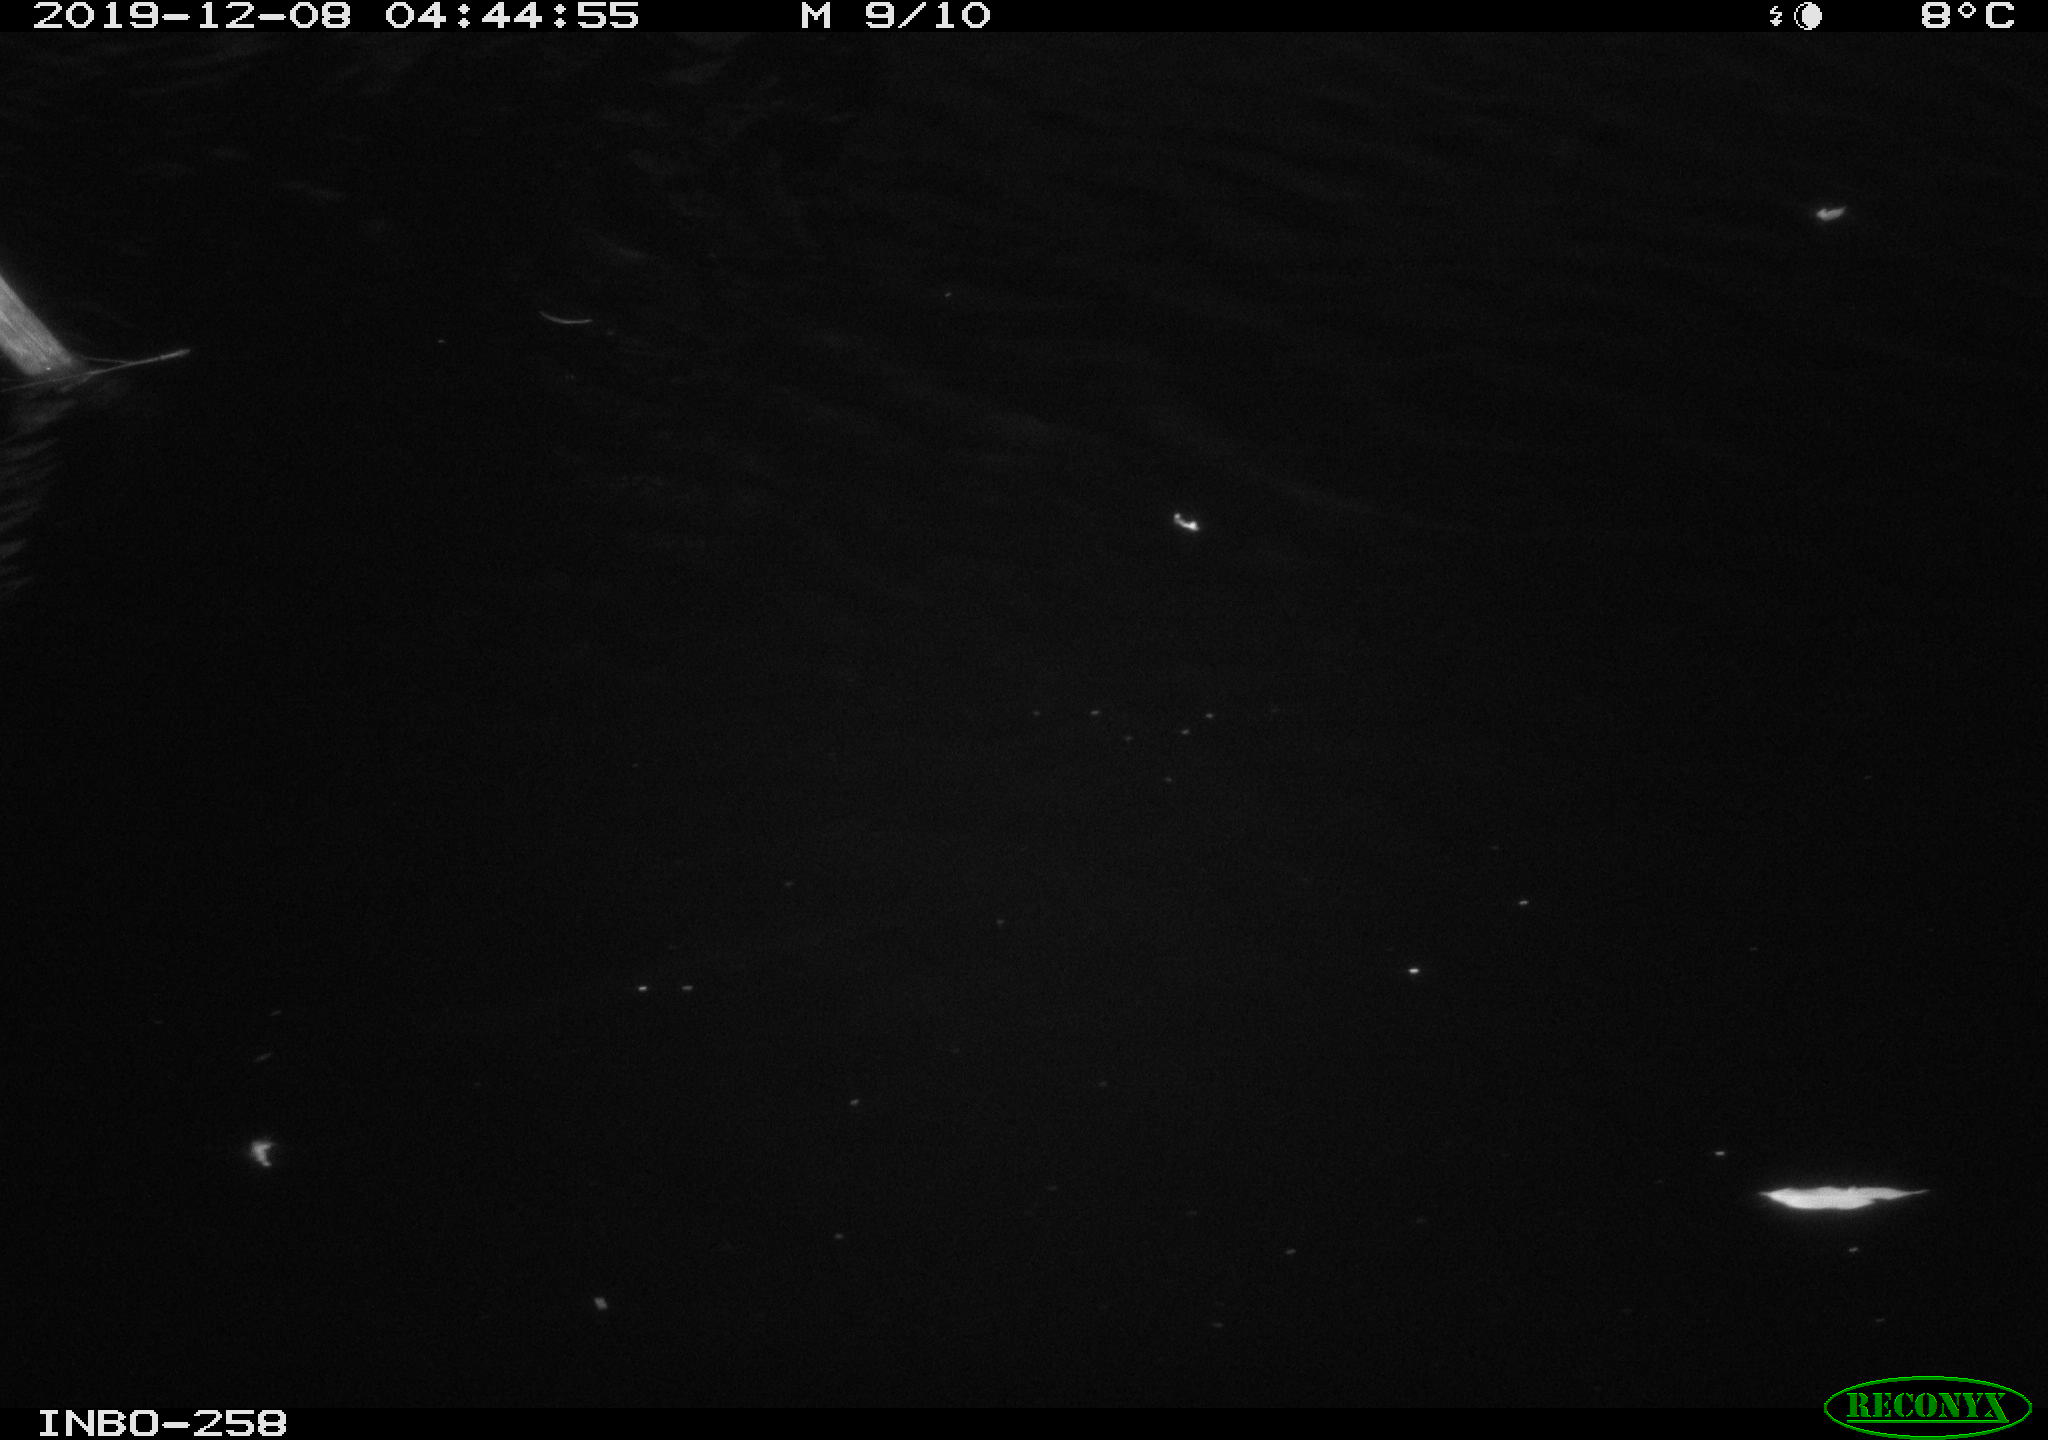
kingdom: Animalia
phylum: Chordata
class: Aves
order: Anseriformes
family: Anatidae
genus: Anas
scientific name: Anas platyrhynchos
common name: Mallard
